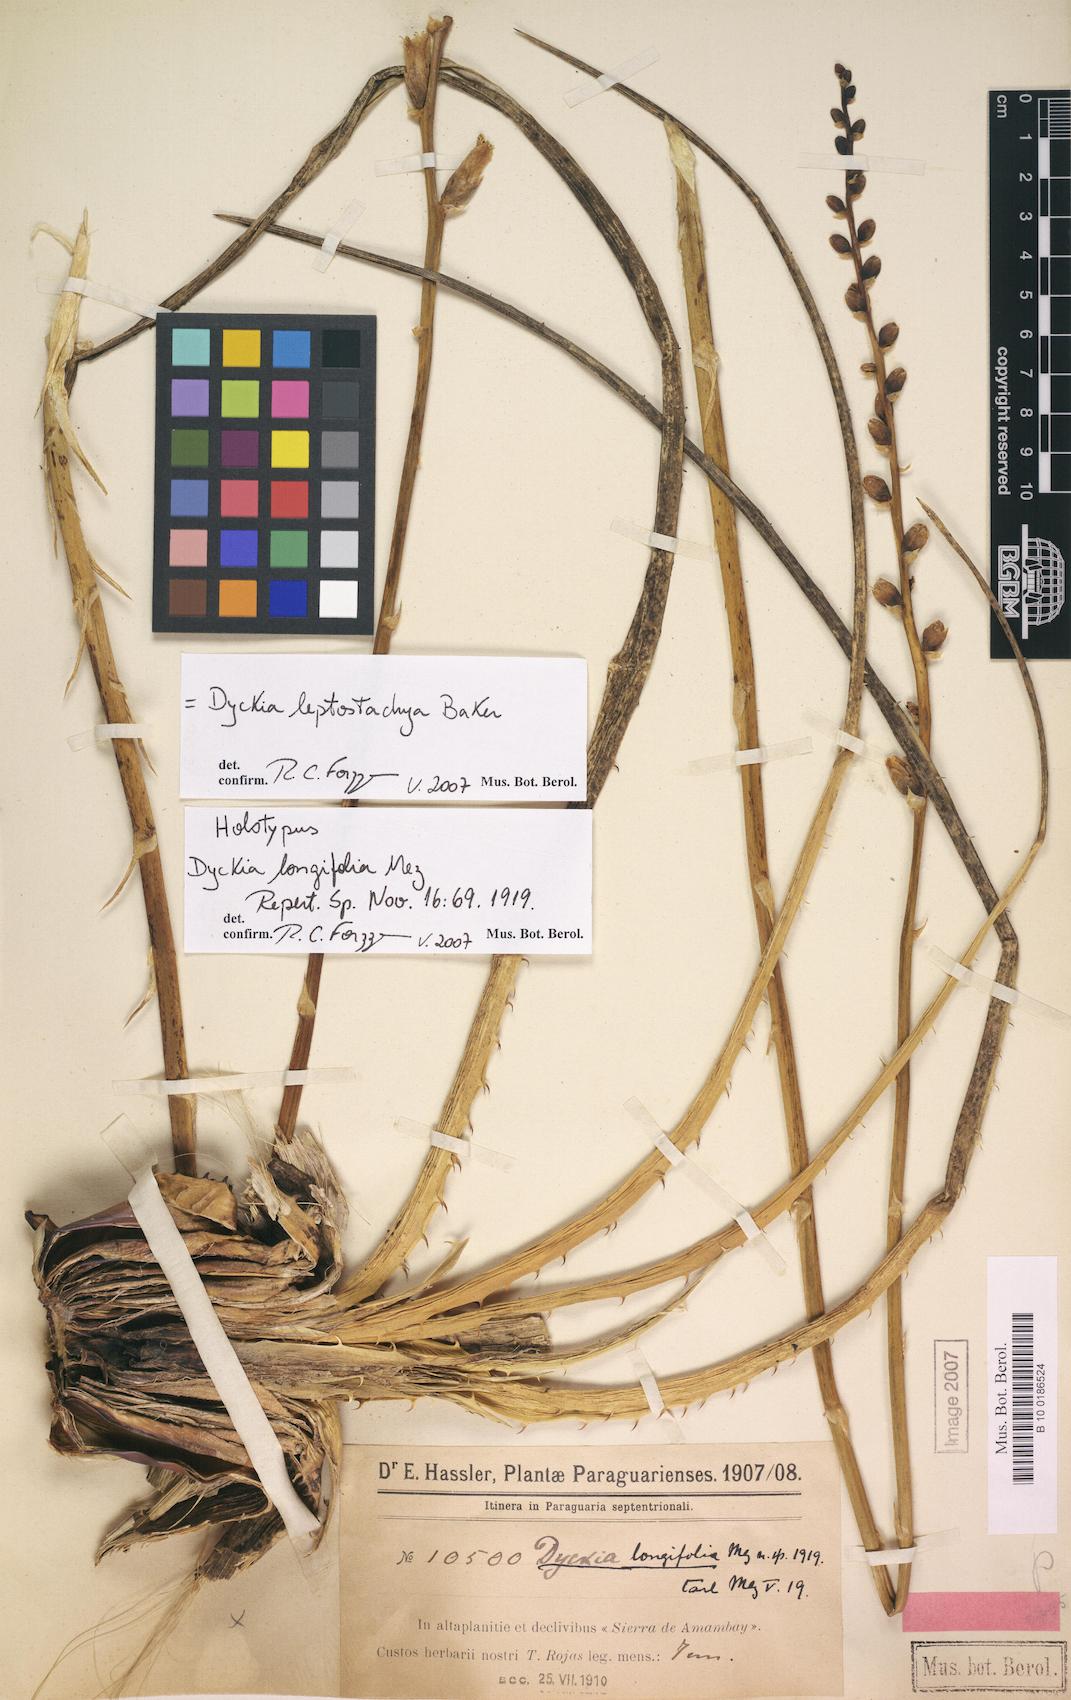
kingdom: Plantae
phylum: Tracheophyta
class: Liliopsida
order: Poales
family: Bromeliaceae
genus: Dyckia
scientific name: Dyckia leptostachya
